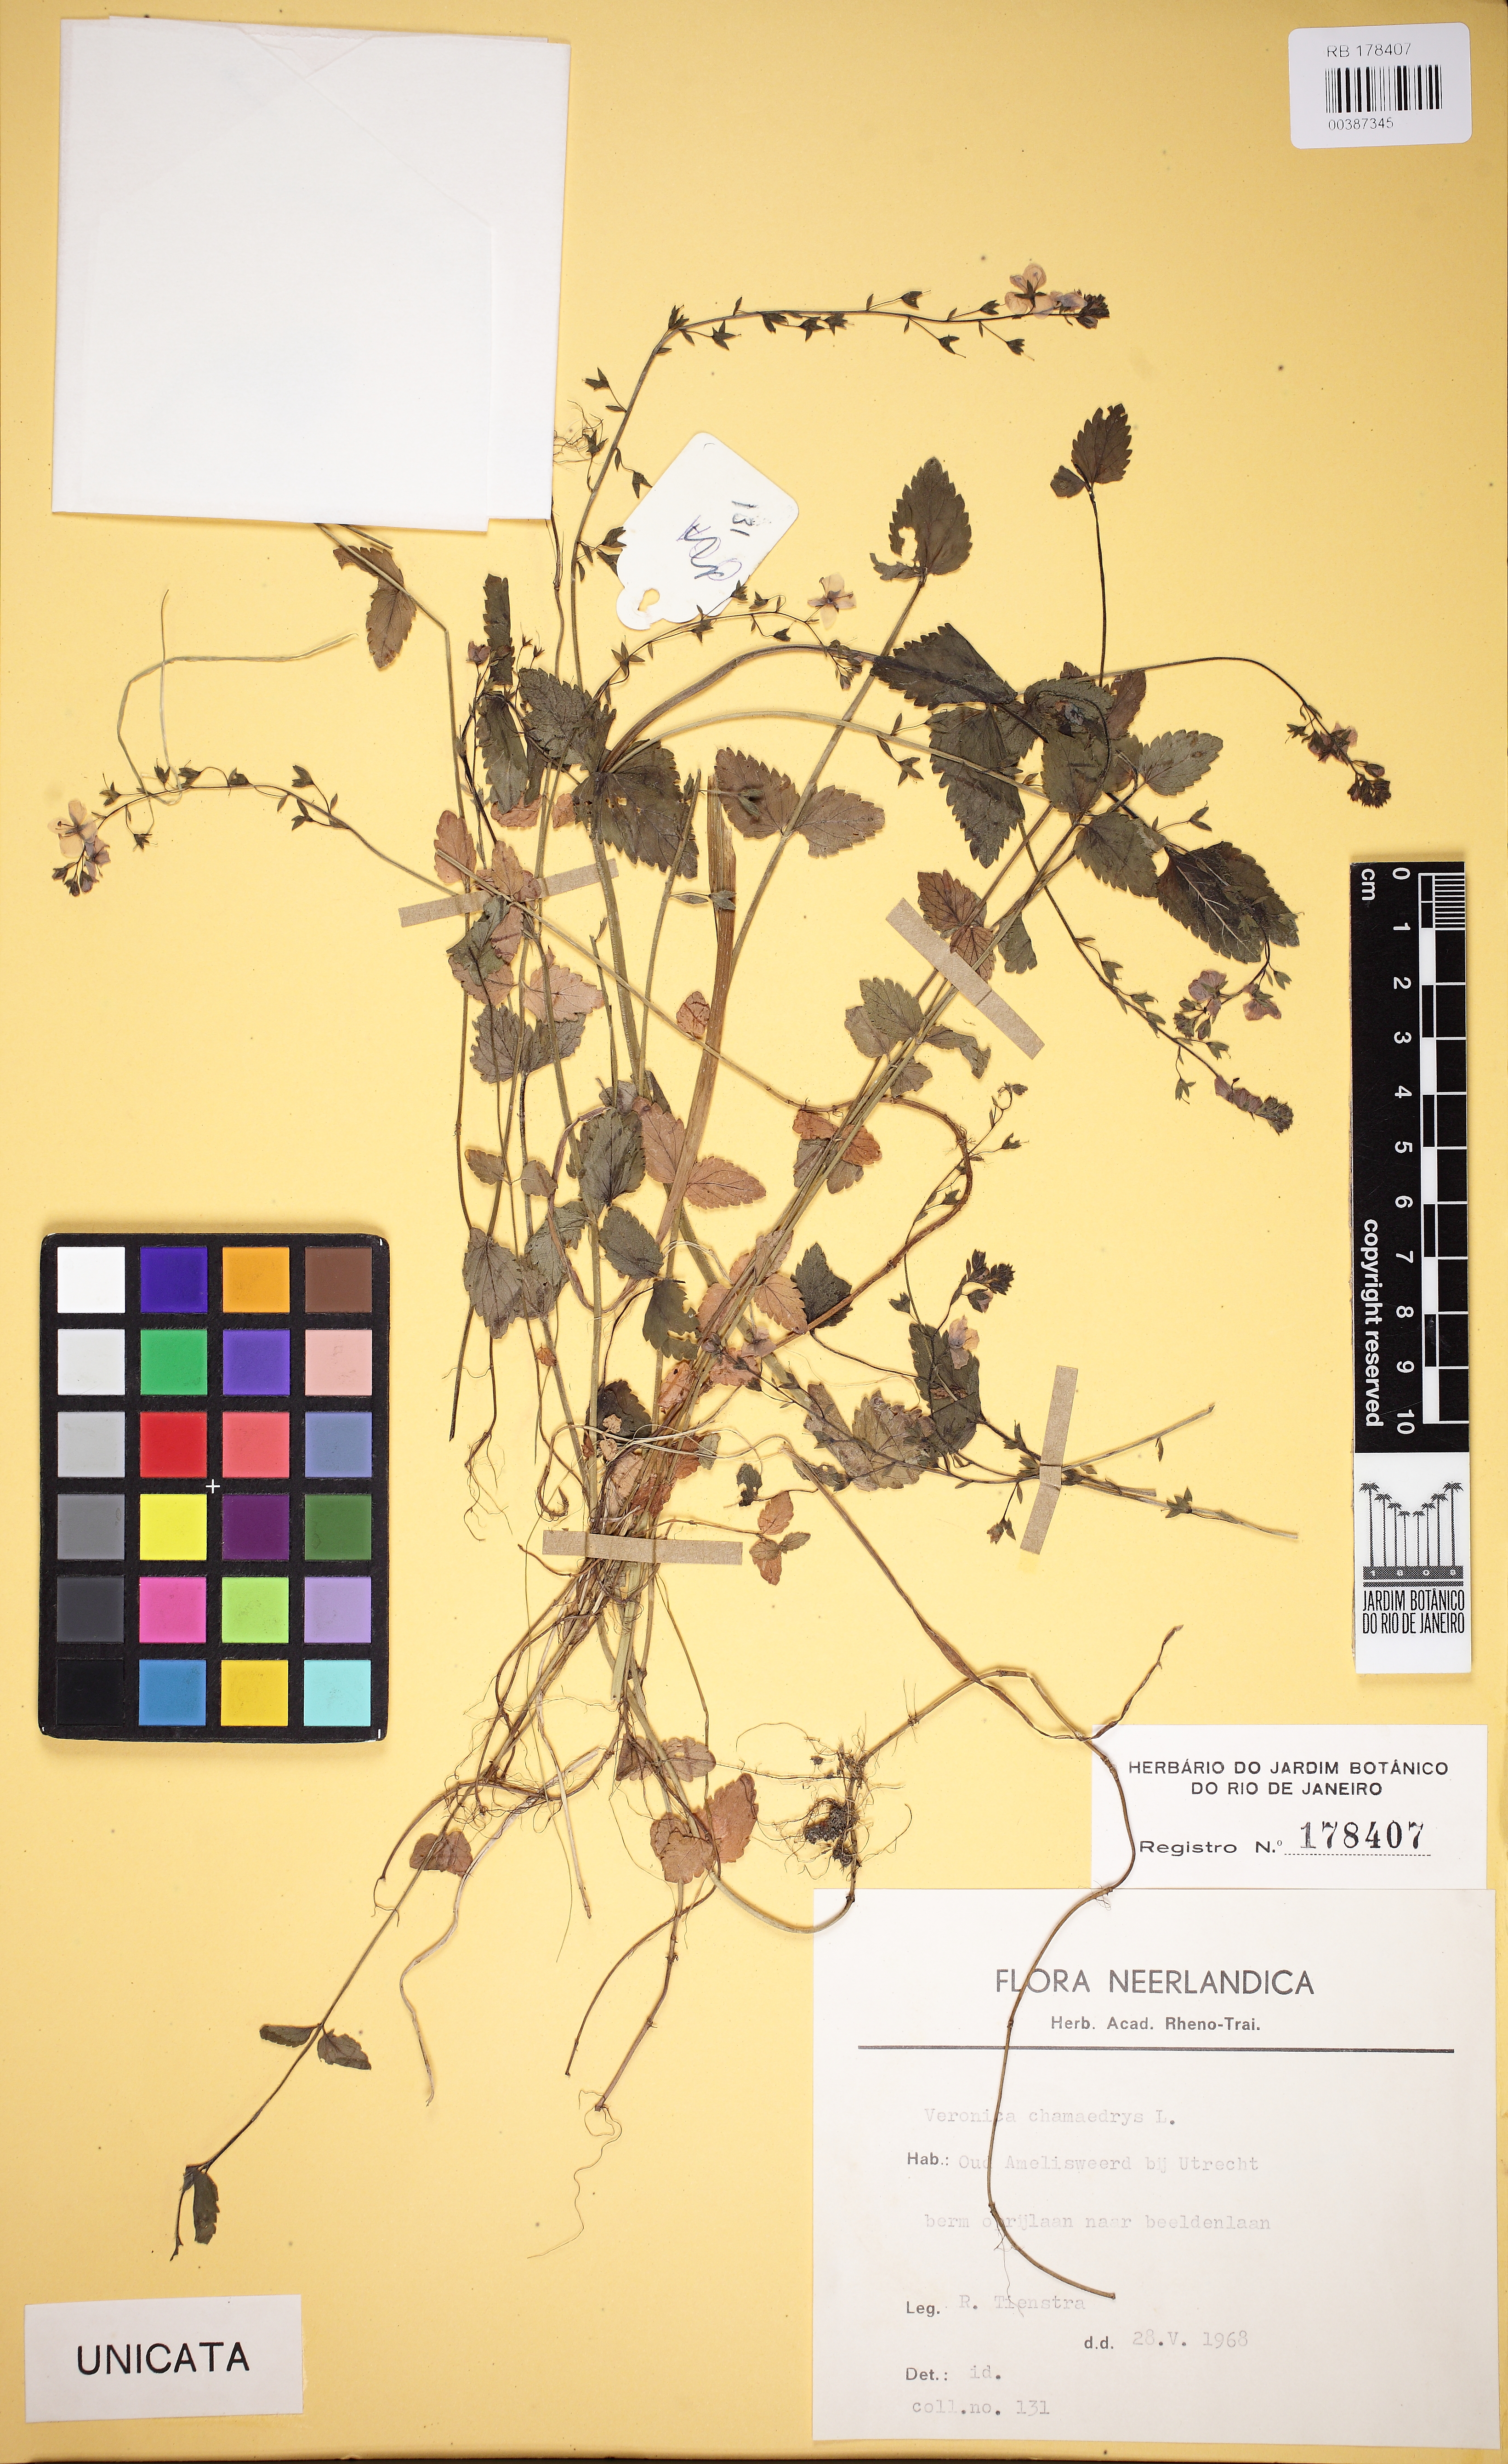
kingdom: Plantae
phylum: Tracheophyta
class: Magnoliopsida
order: Lamiales
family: Scrophulariaceae
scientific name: Scrophulariaceae
